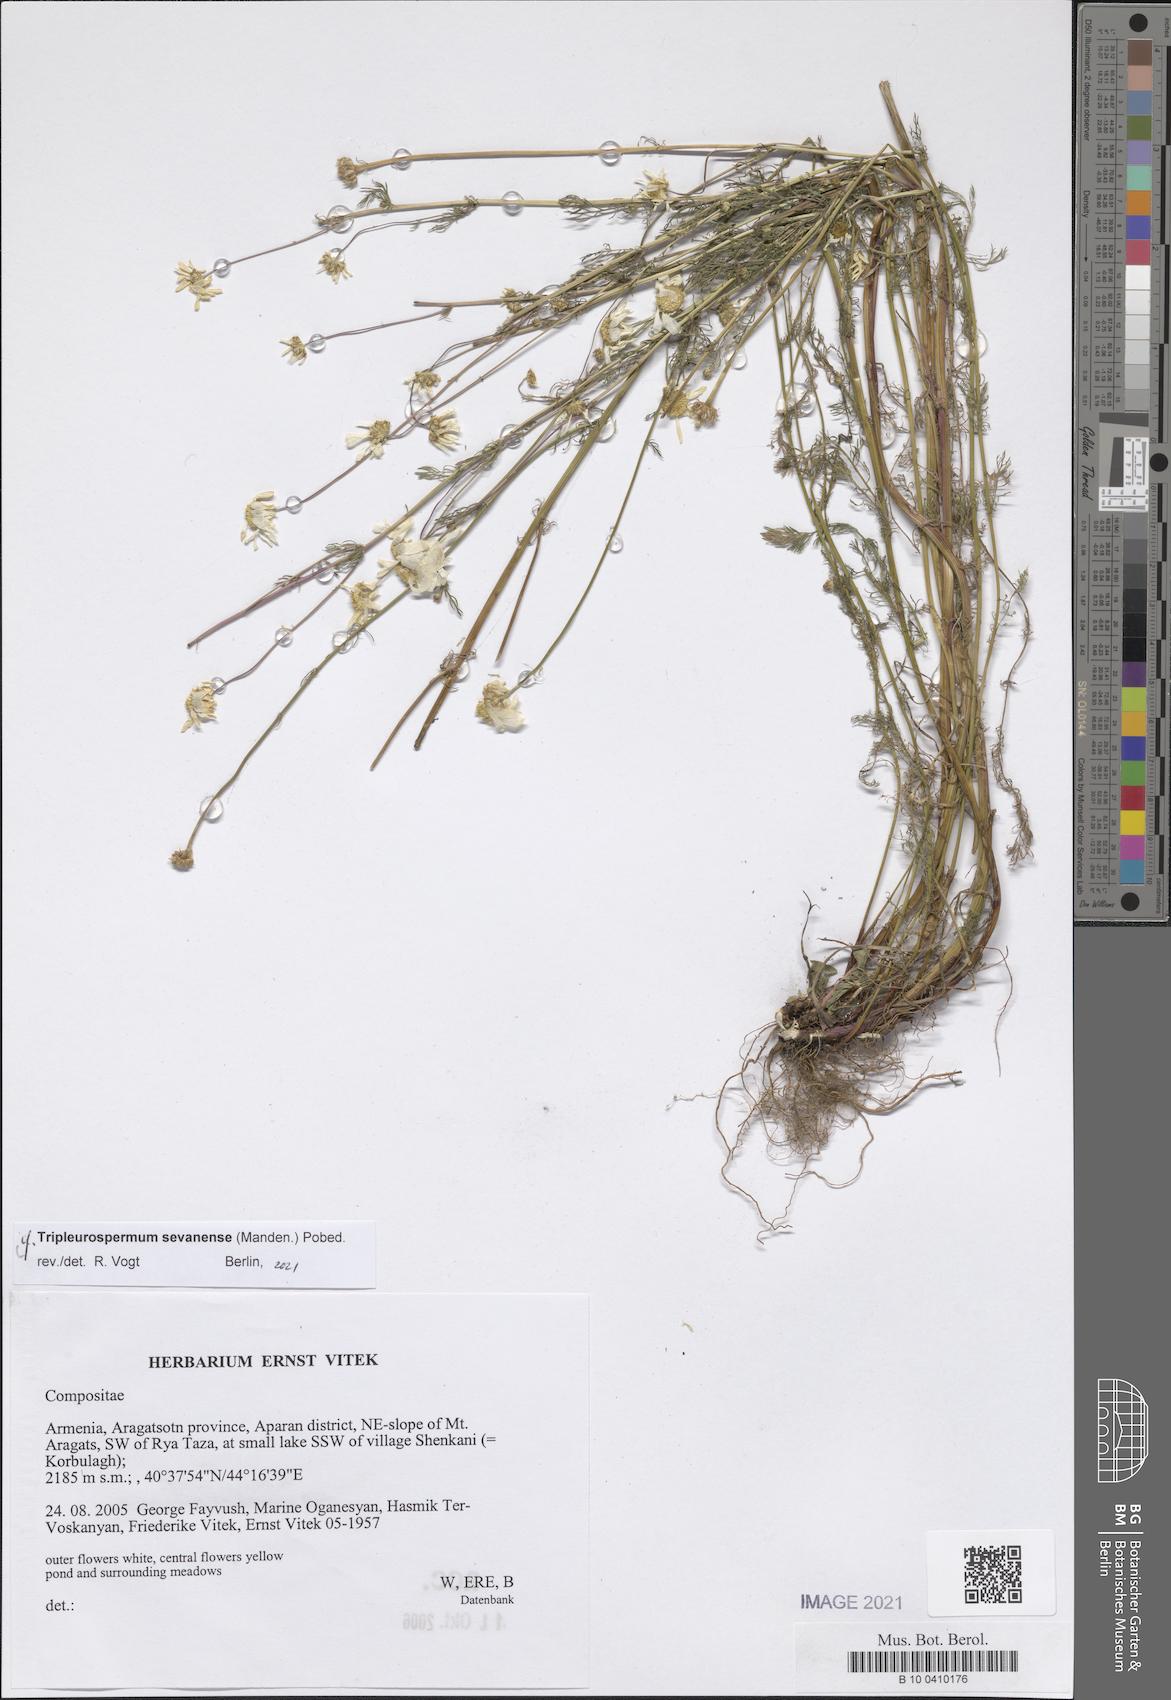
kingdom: Plantae
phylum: Tracheophyta
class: Magnoliopsida
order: Asterales
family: Asteraceae
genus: Tripleurospermum
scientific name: Tripleurospermum sevanense
